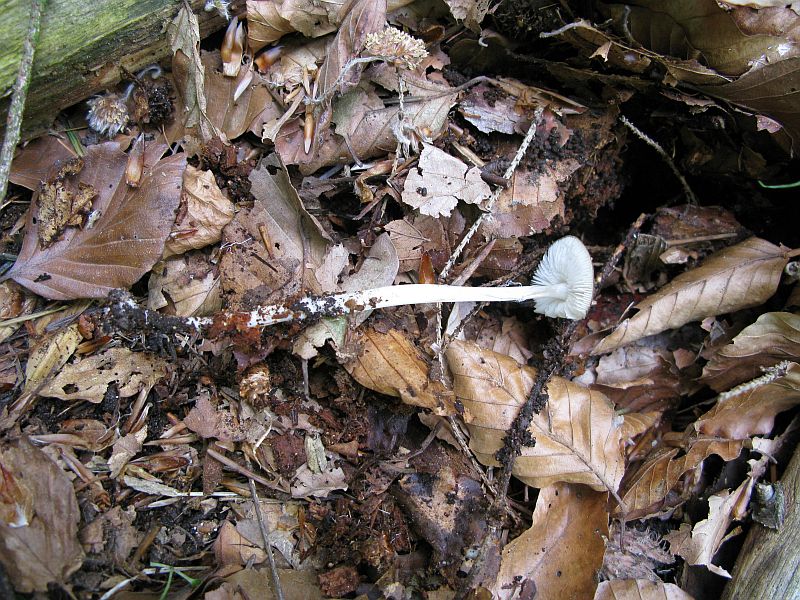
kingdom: Fungi
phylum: Basidiomycota
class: Agaricomycetes
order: Agaricales
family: Porotheleaceae
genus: Hydropodia
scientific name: Hydropodia subalpina
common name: vår-fnugfod
